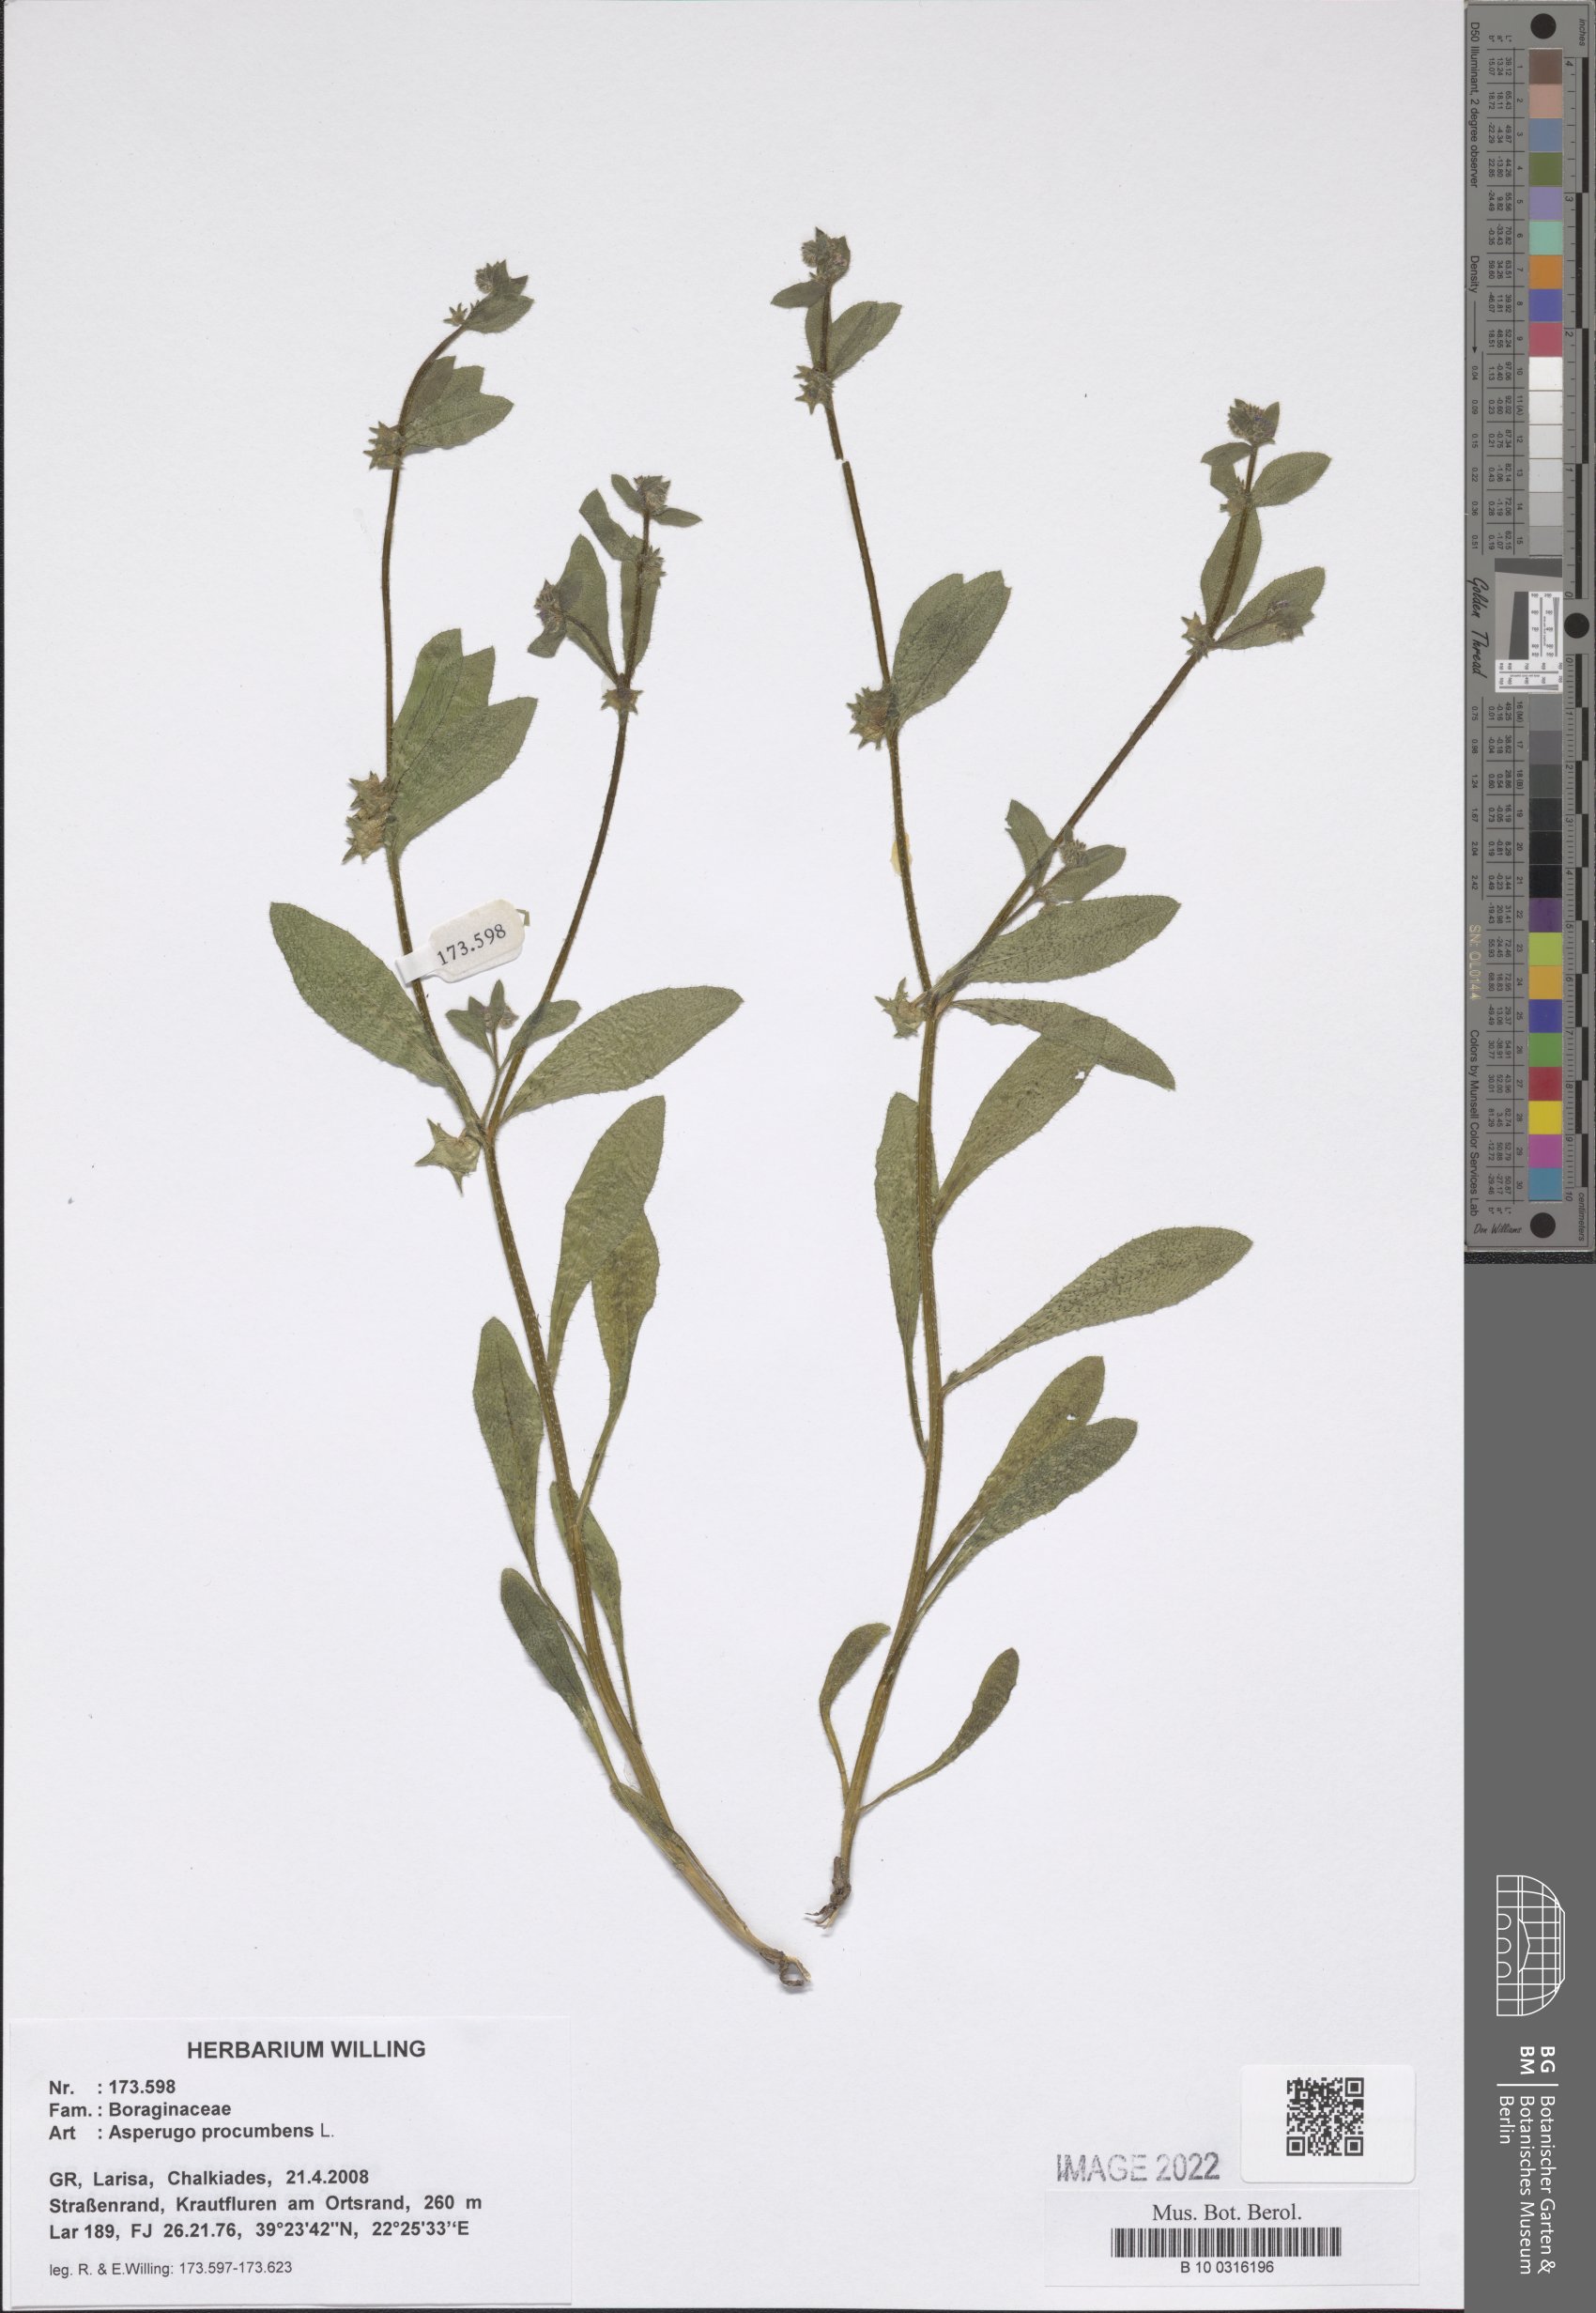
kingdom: Plantae
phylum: Tracheophyta
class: Magnoliopsida
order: Boraginales
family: Boraginaceae
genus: Asperugo
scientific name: Asperugo procumbens
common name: Madwort
